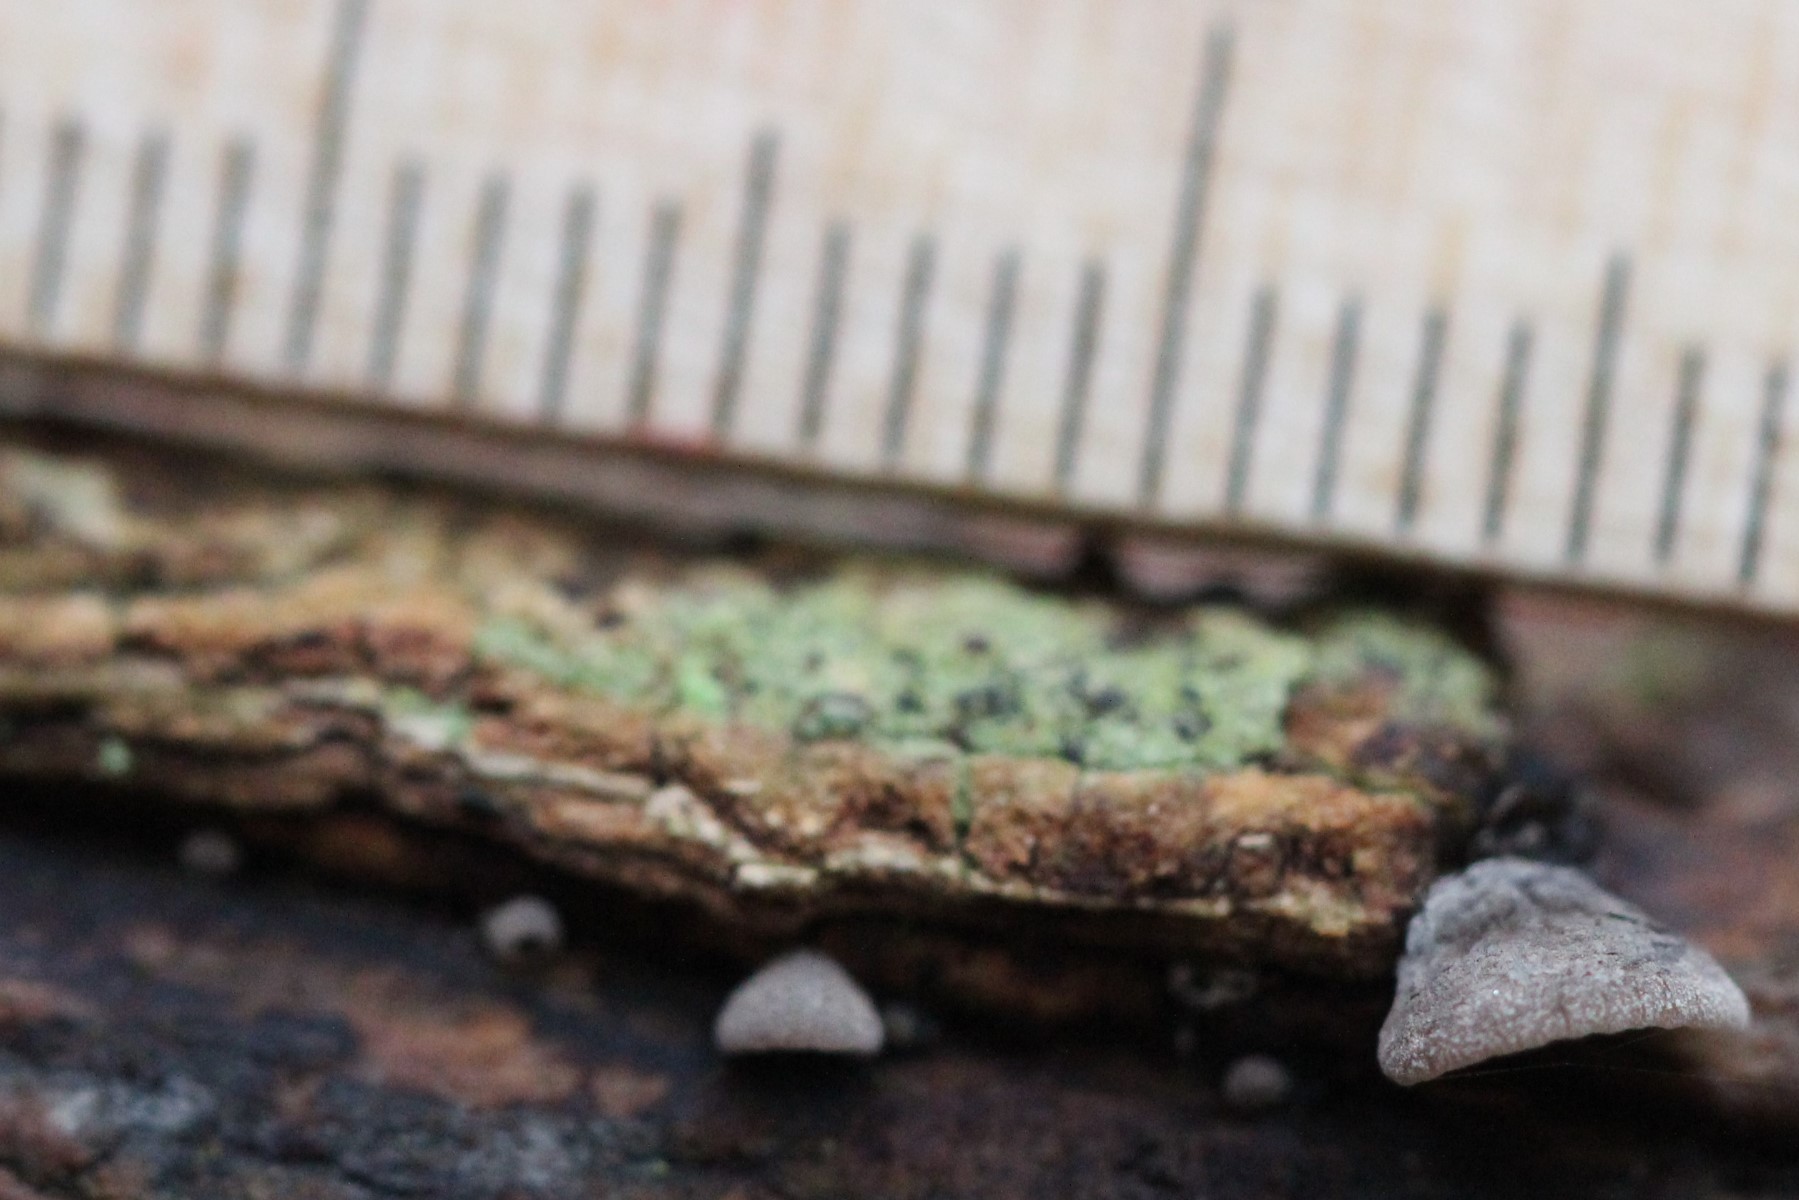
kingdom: Fungi
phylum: Basidiomycota
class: Agaricomycetes
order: Agaricales
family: Pleurotaceae
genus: Resupinatus
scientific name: Resupinatus applicatus
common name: lysfiltet barkhat
